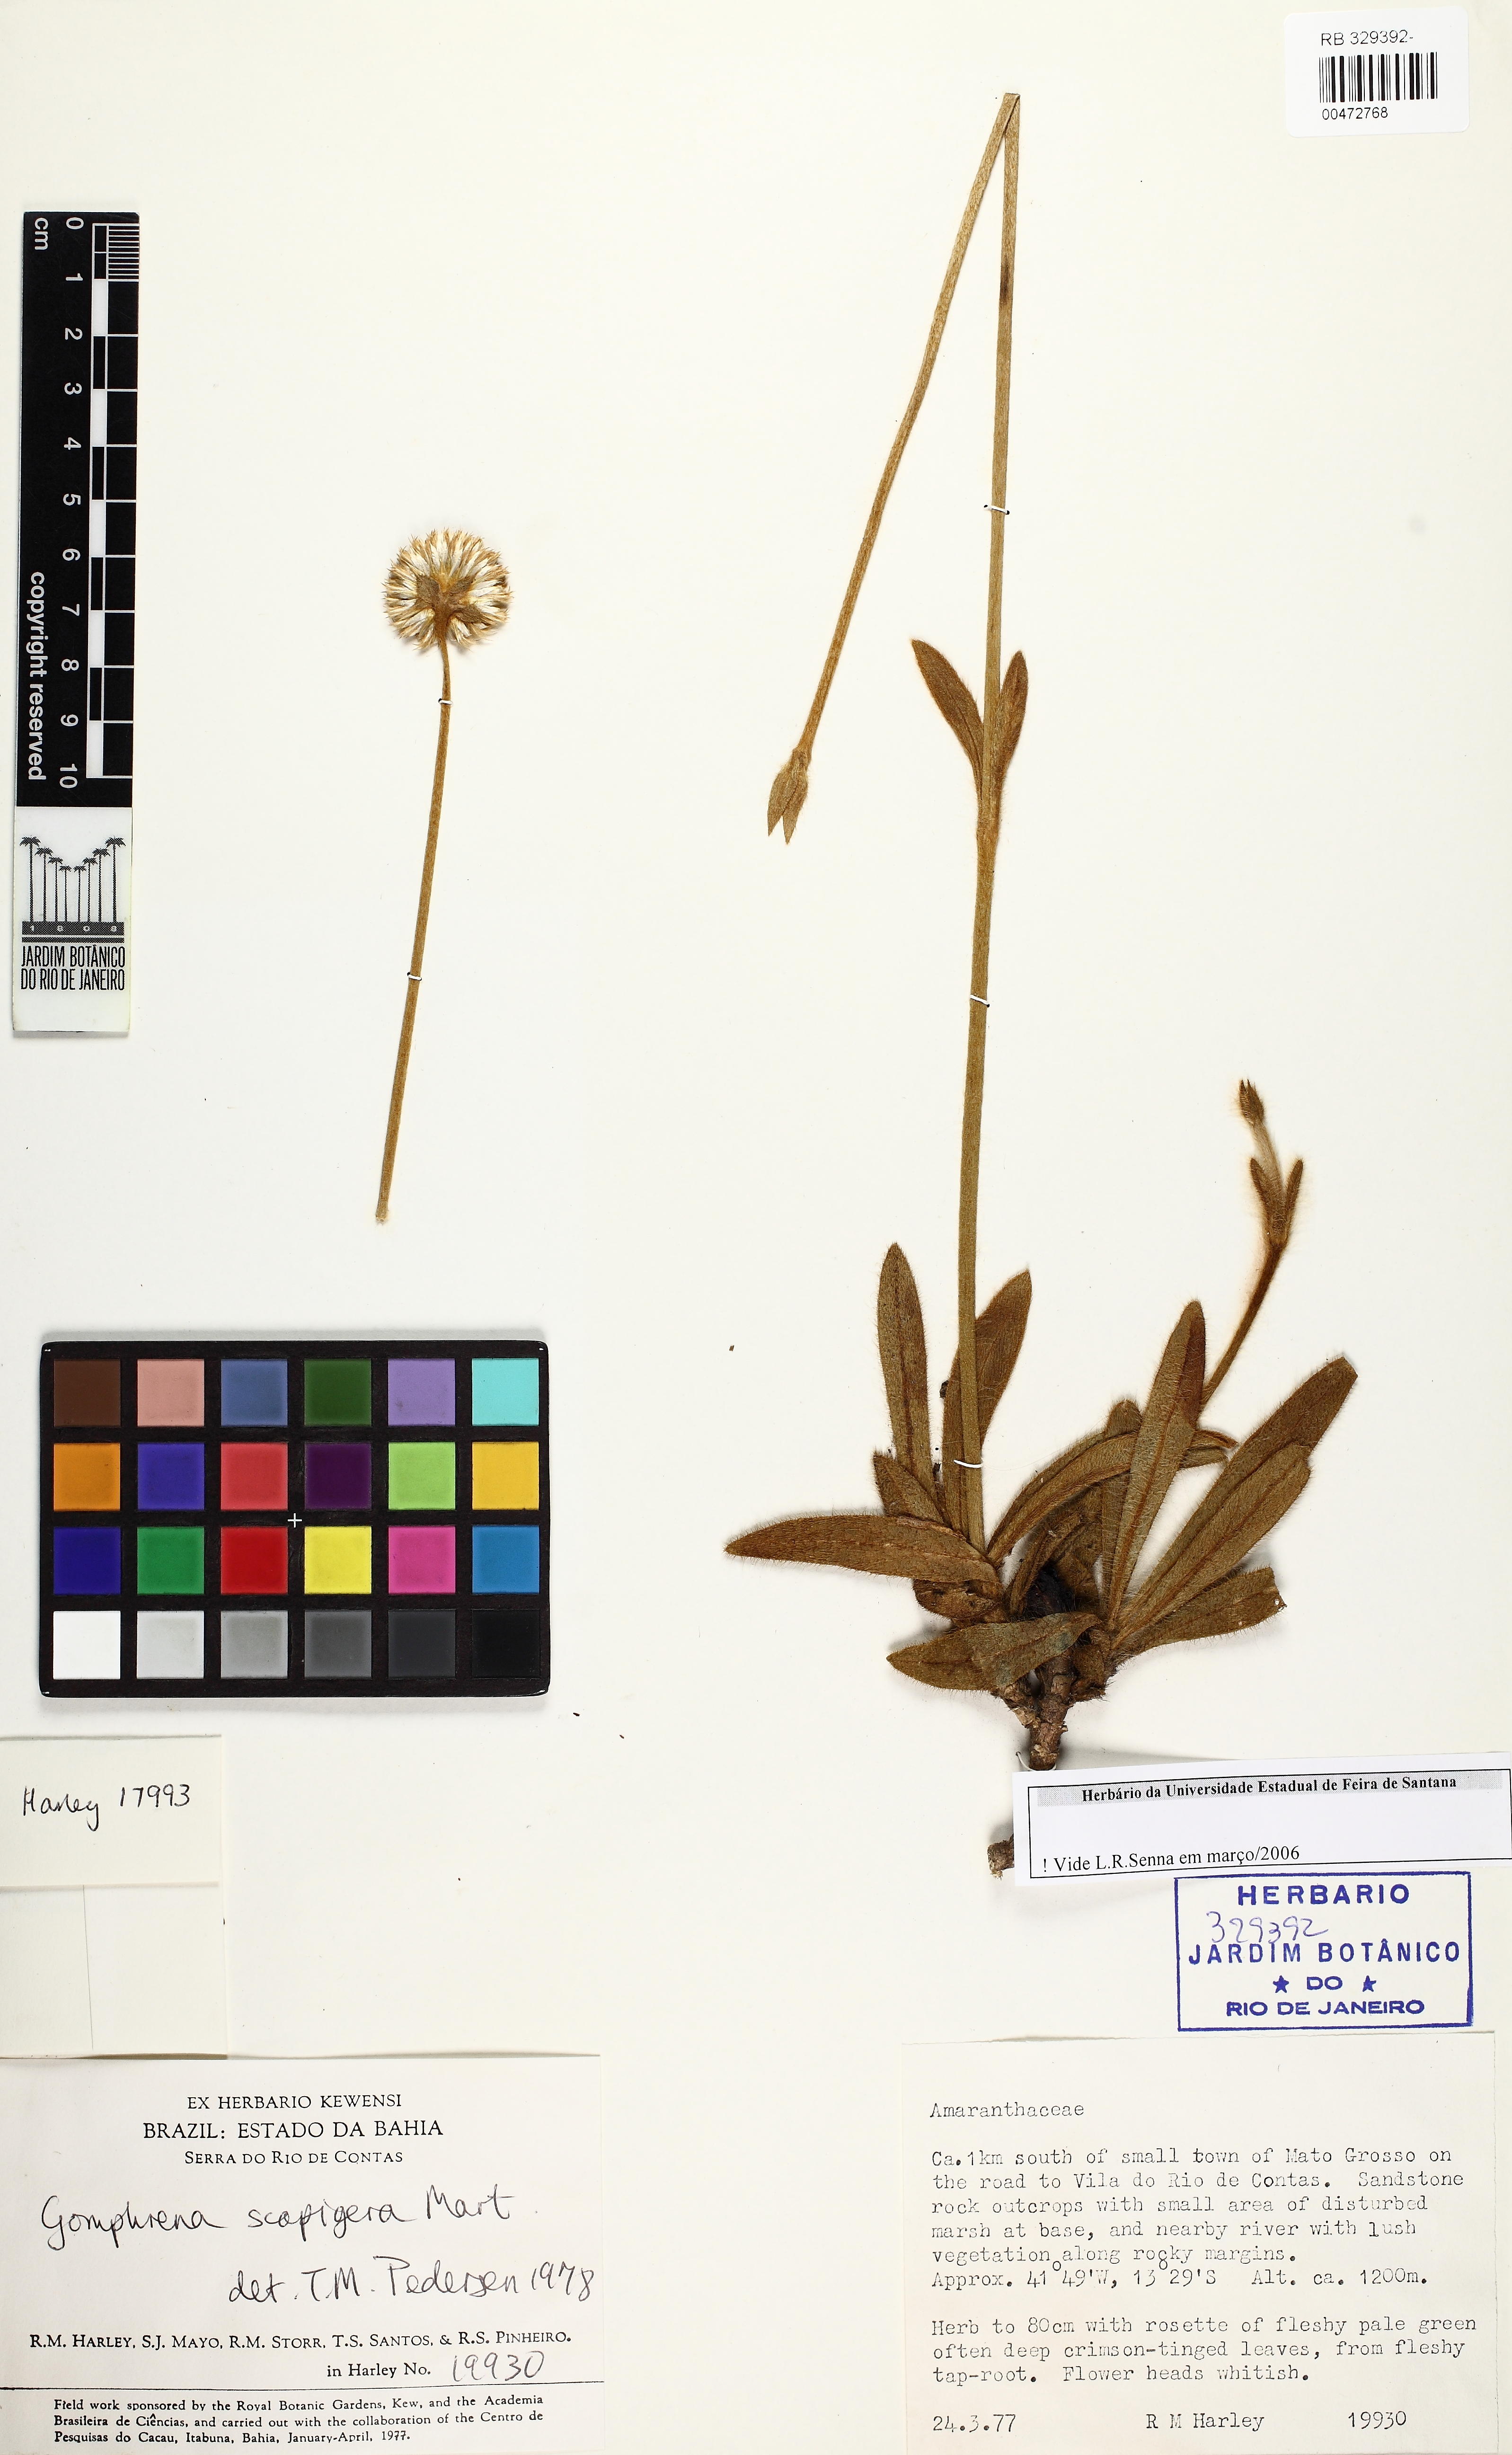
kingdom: Plantae
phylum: Tracheophyta
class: Magnoliopsida
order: Caryophyllales
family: Amaranthaceae
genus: Gomphrena
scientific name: Gomphrena scapigera
